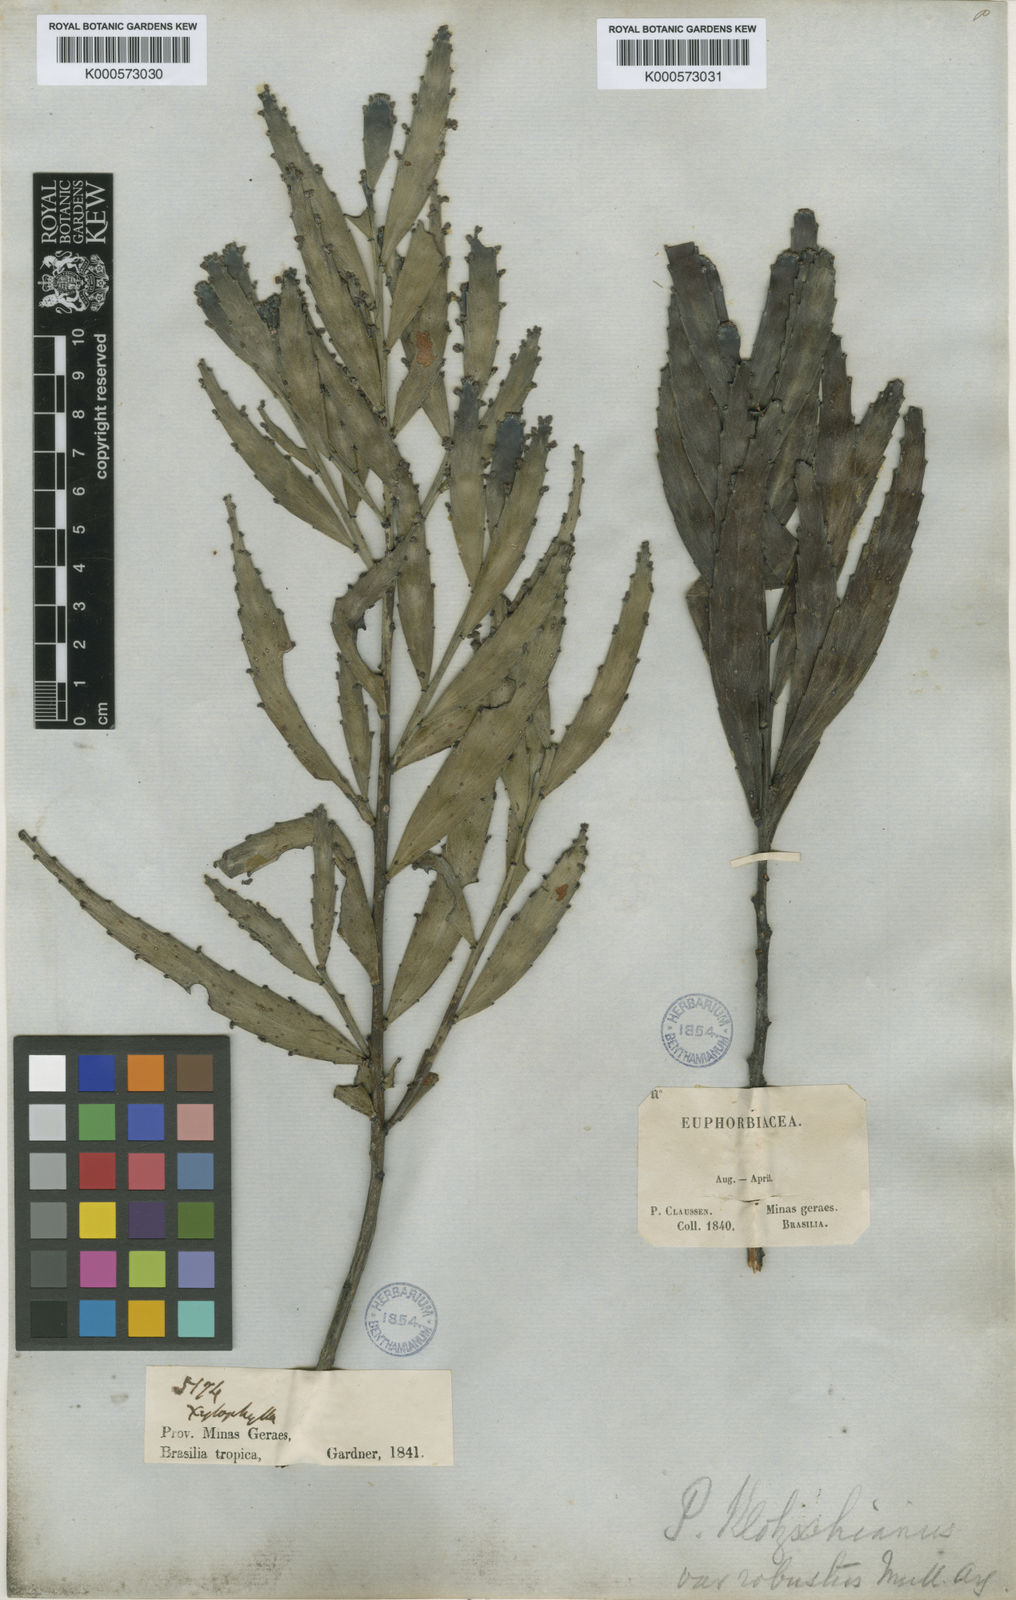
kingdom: Plantae
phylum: Tracheophyta
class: Magnoliopsida
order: Malpighiales
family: Phyllanthaceae
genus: Phyllanthus
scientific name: Phyllanthus
